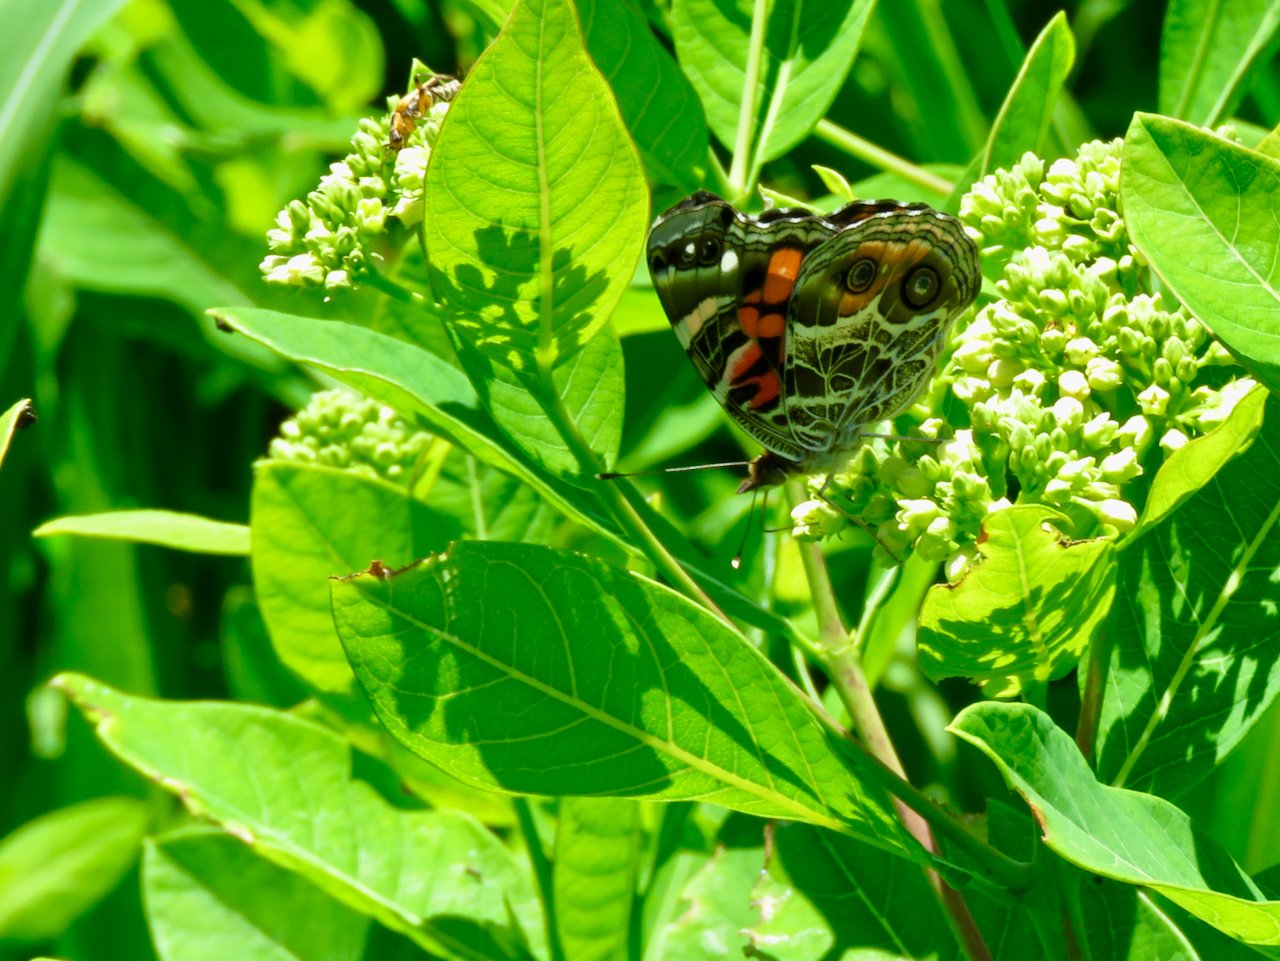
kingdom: Animalia
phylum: Arthropoda
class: Insecta
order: Lepidoptera
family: Nymphalidae
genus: Vanessa
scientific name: Vanessa virginiensis
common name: American Lady
